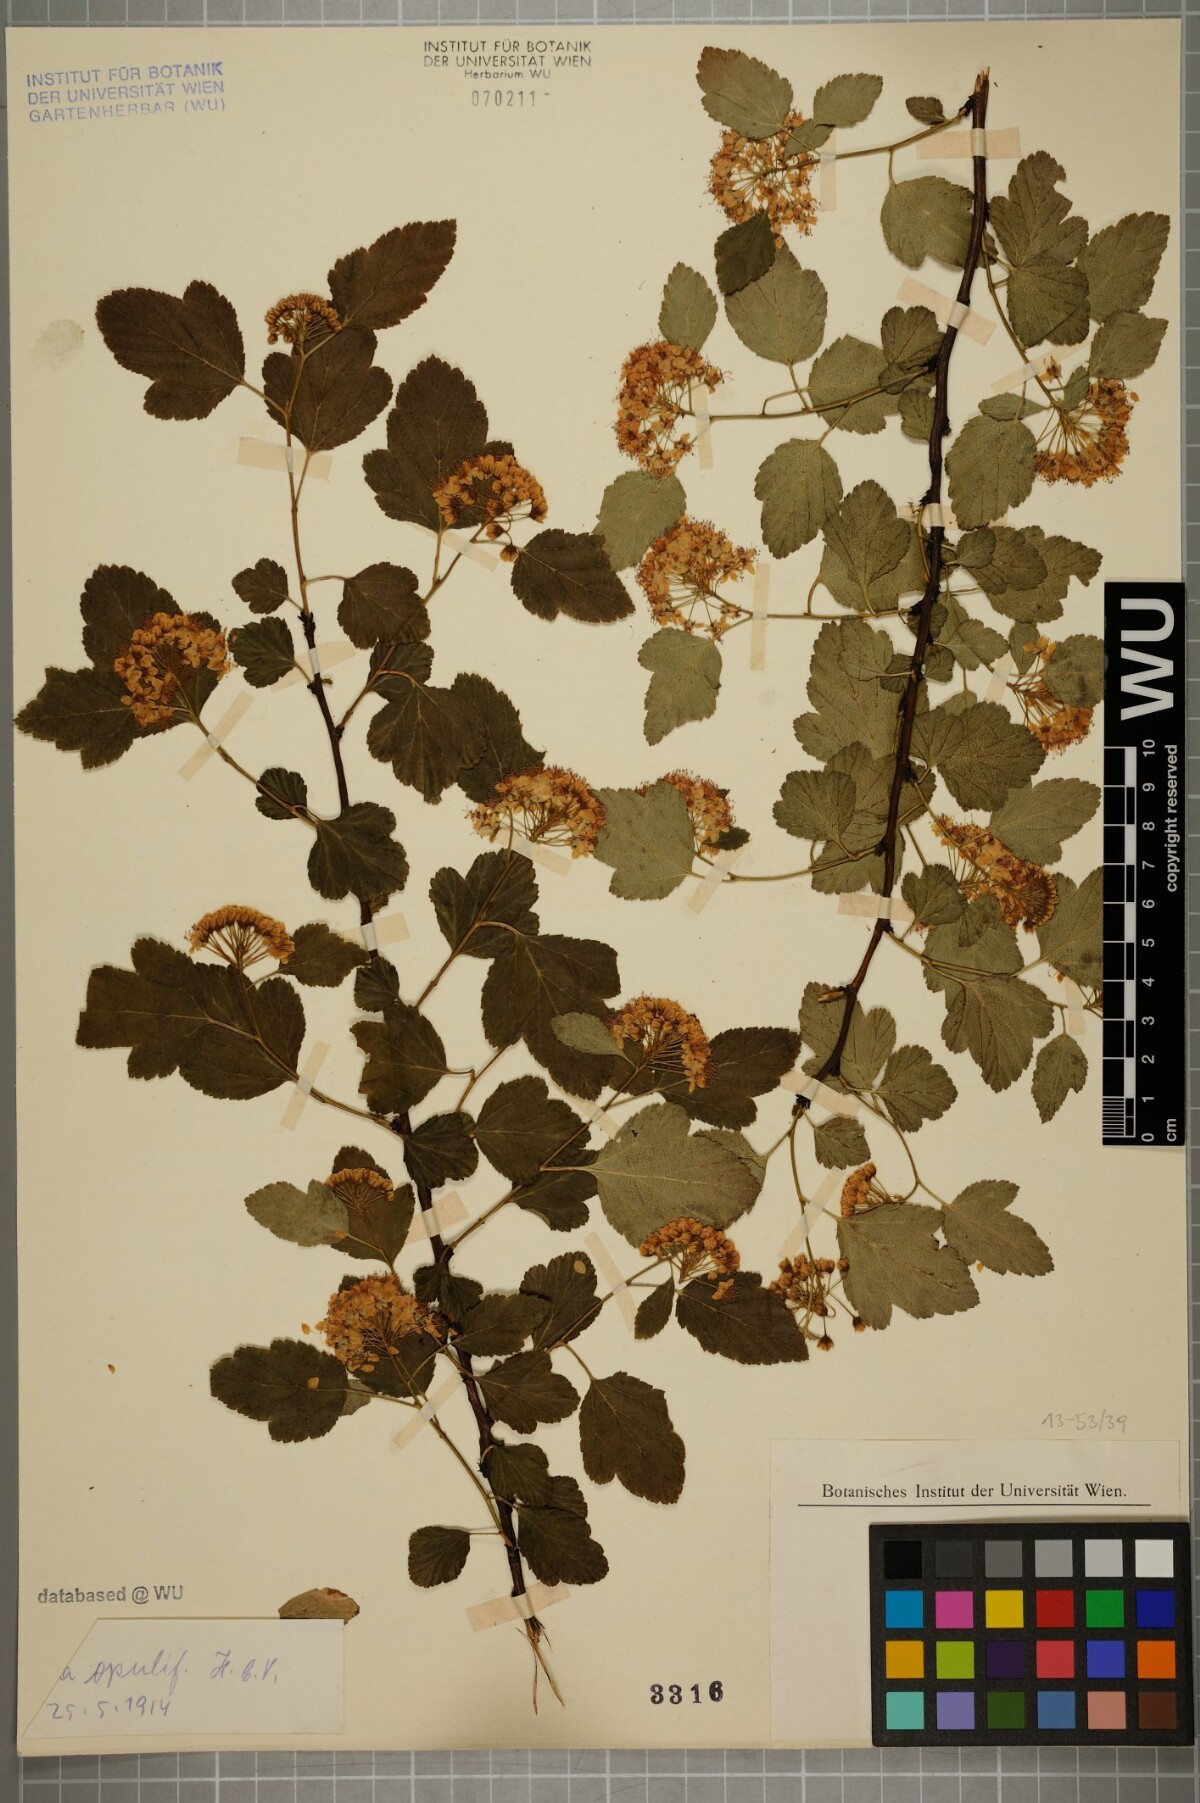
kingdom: Plantae
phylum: Tracheophyta
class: Magnoliopsida
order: Rosales
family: Rosaceae
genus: Physocarpus
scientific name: Physocarpus opulifolius
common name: Ninebark
